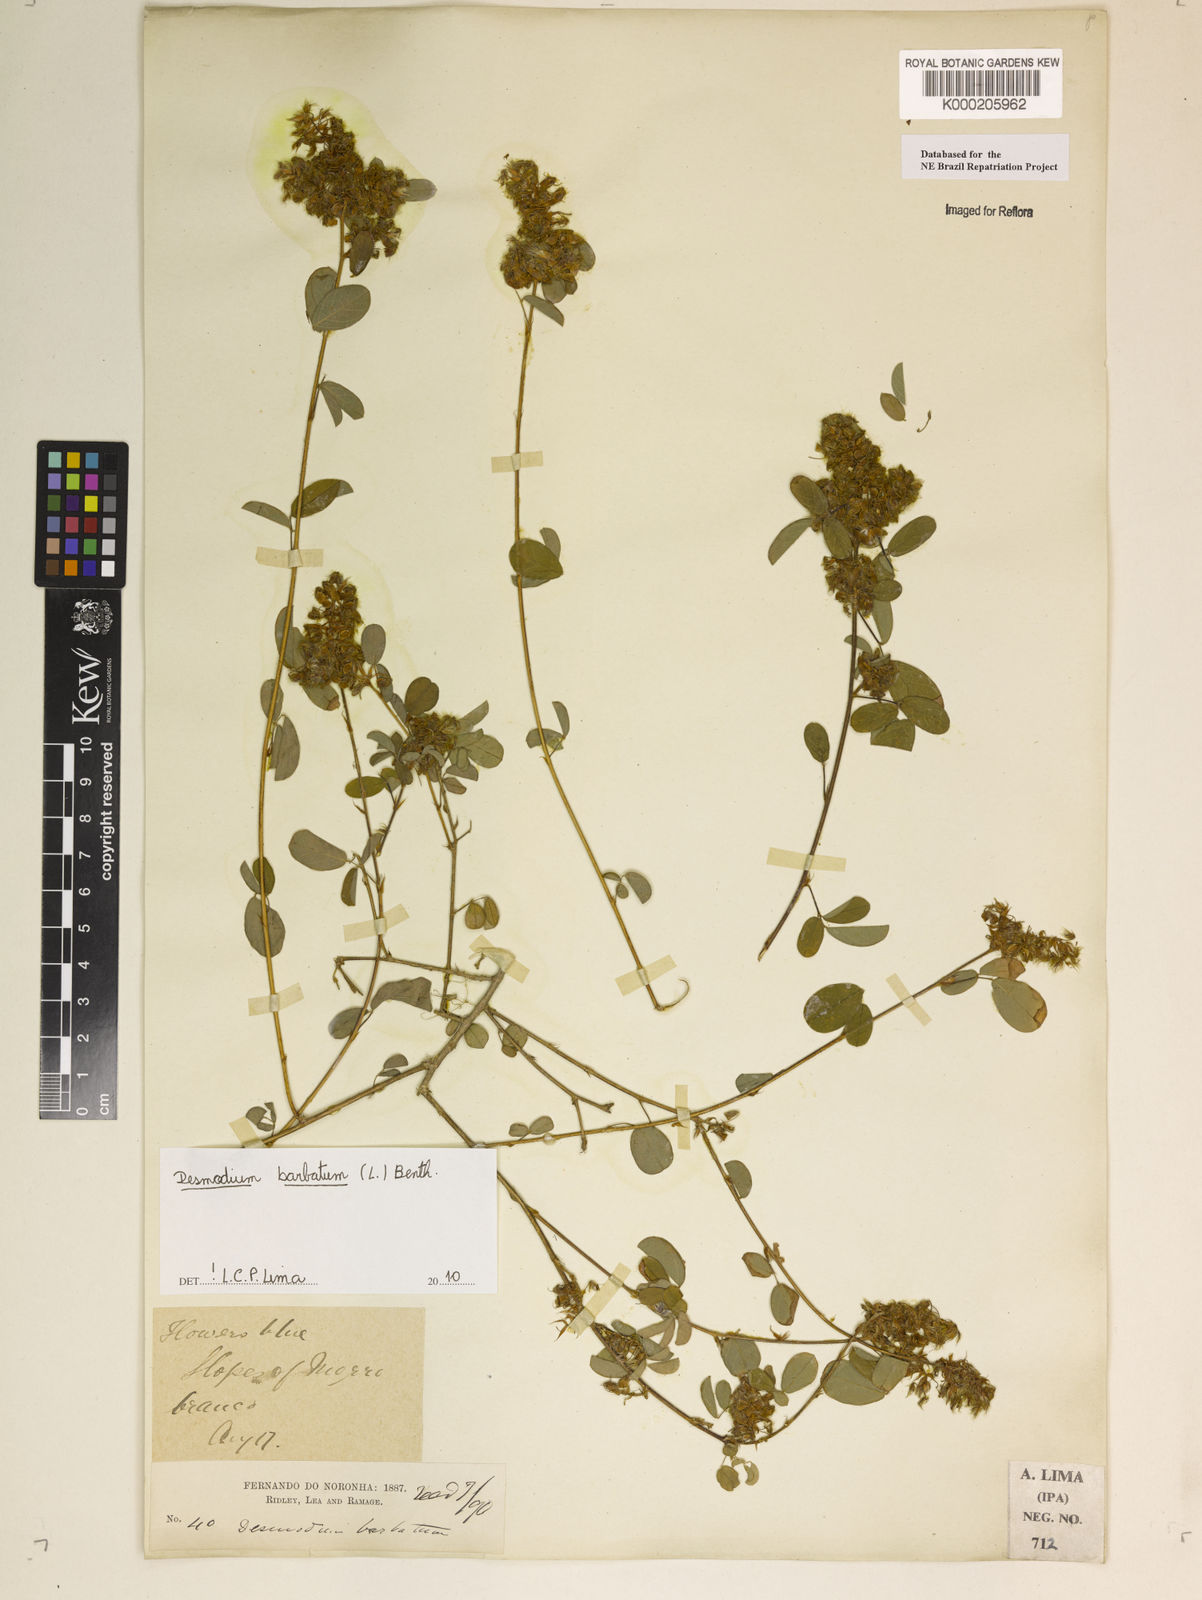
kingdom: Plantae
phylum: Tracheophyta
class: Magnoliopsida
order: Fabales
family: Fabaceae
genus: Grona
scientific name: Grona barbata
